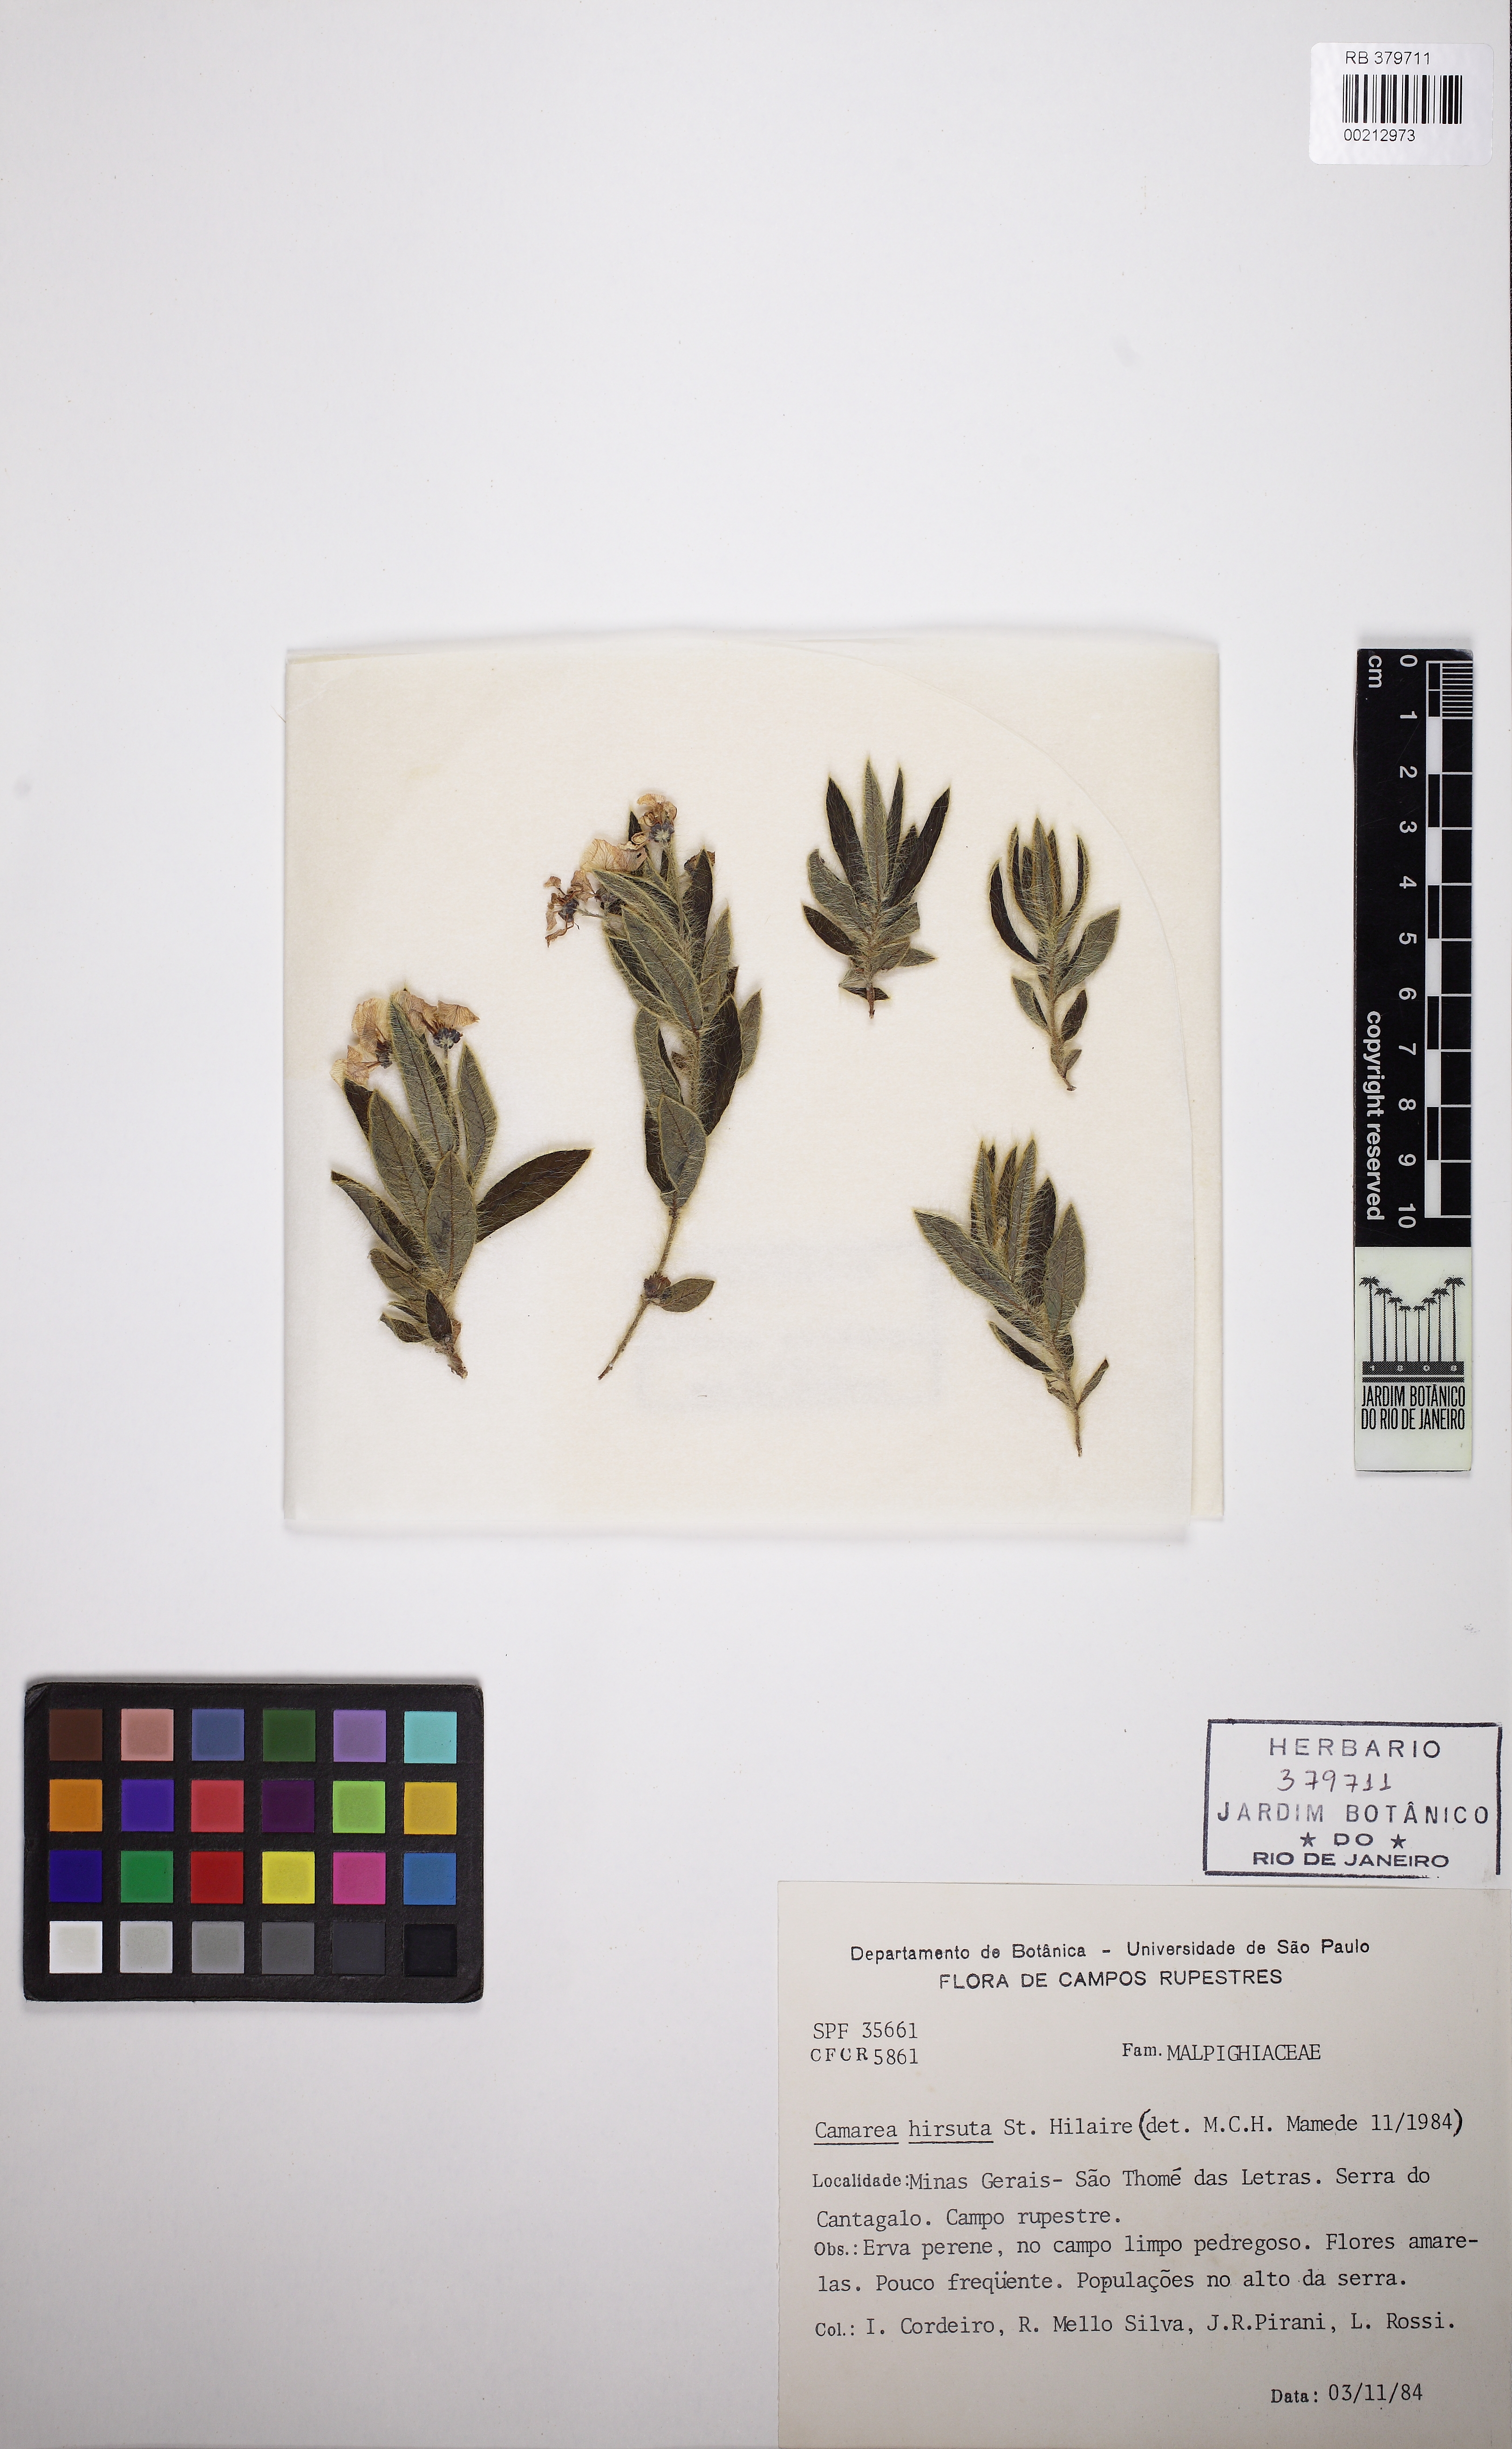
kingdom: Plantae
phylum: Tracheophyta
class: Magnoliopsida
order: Malpighiales
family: Malpighiaceae
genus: Camarea
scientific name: Camarea humifusa
